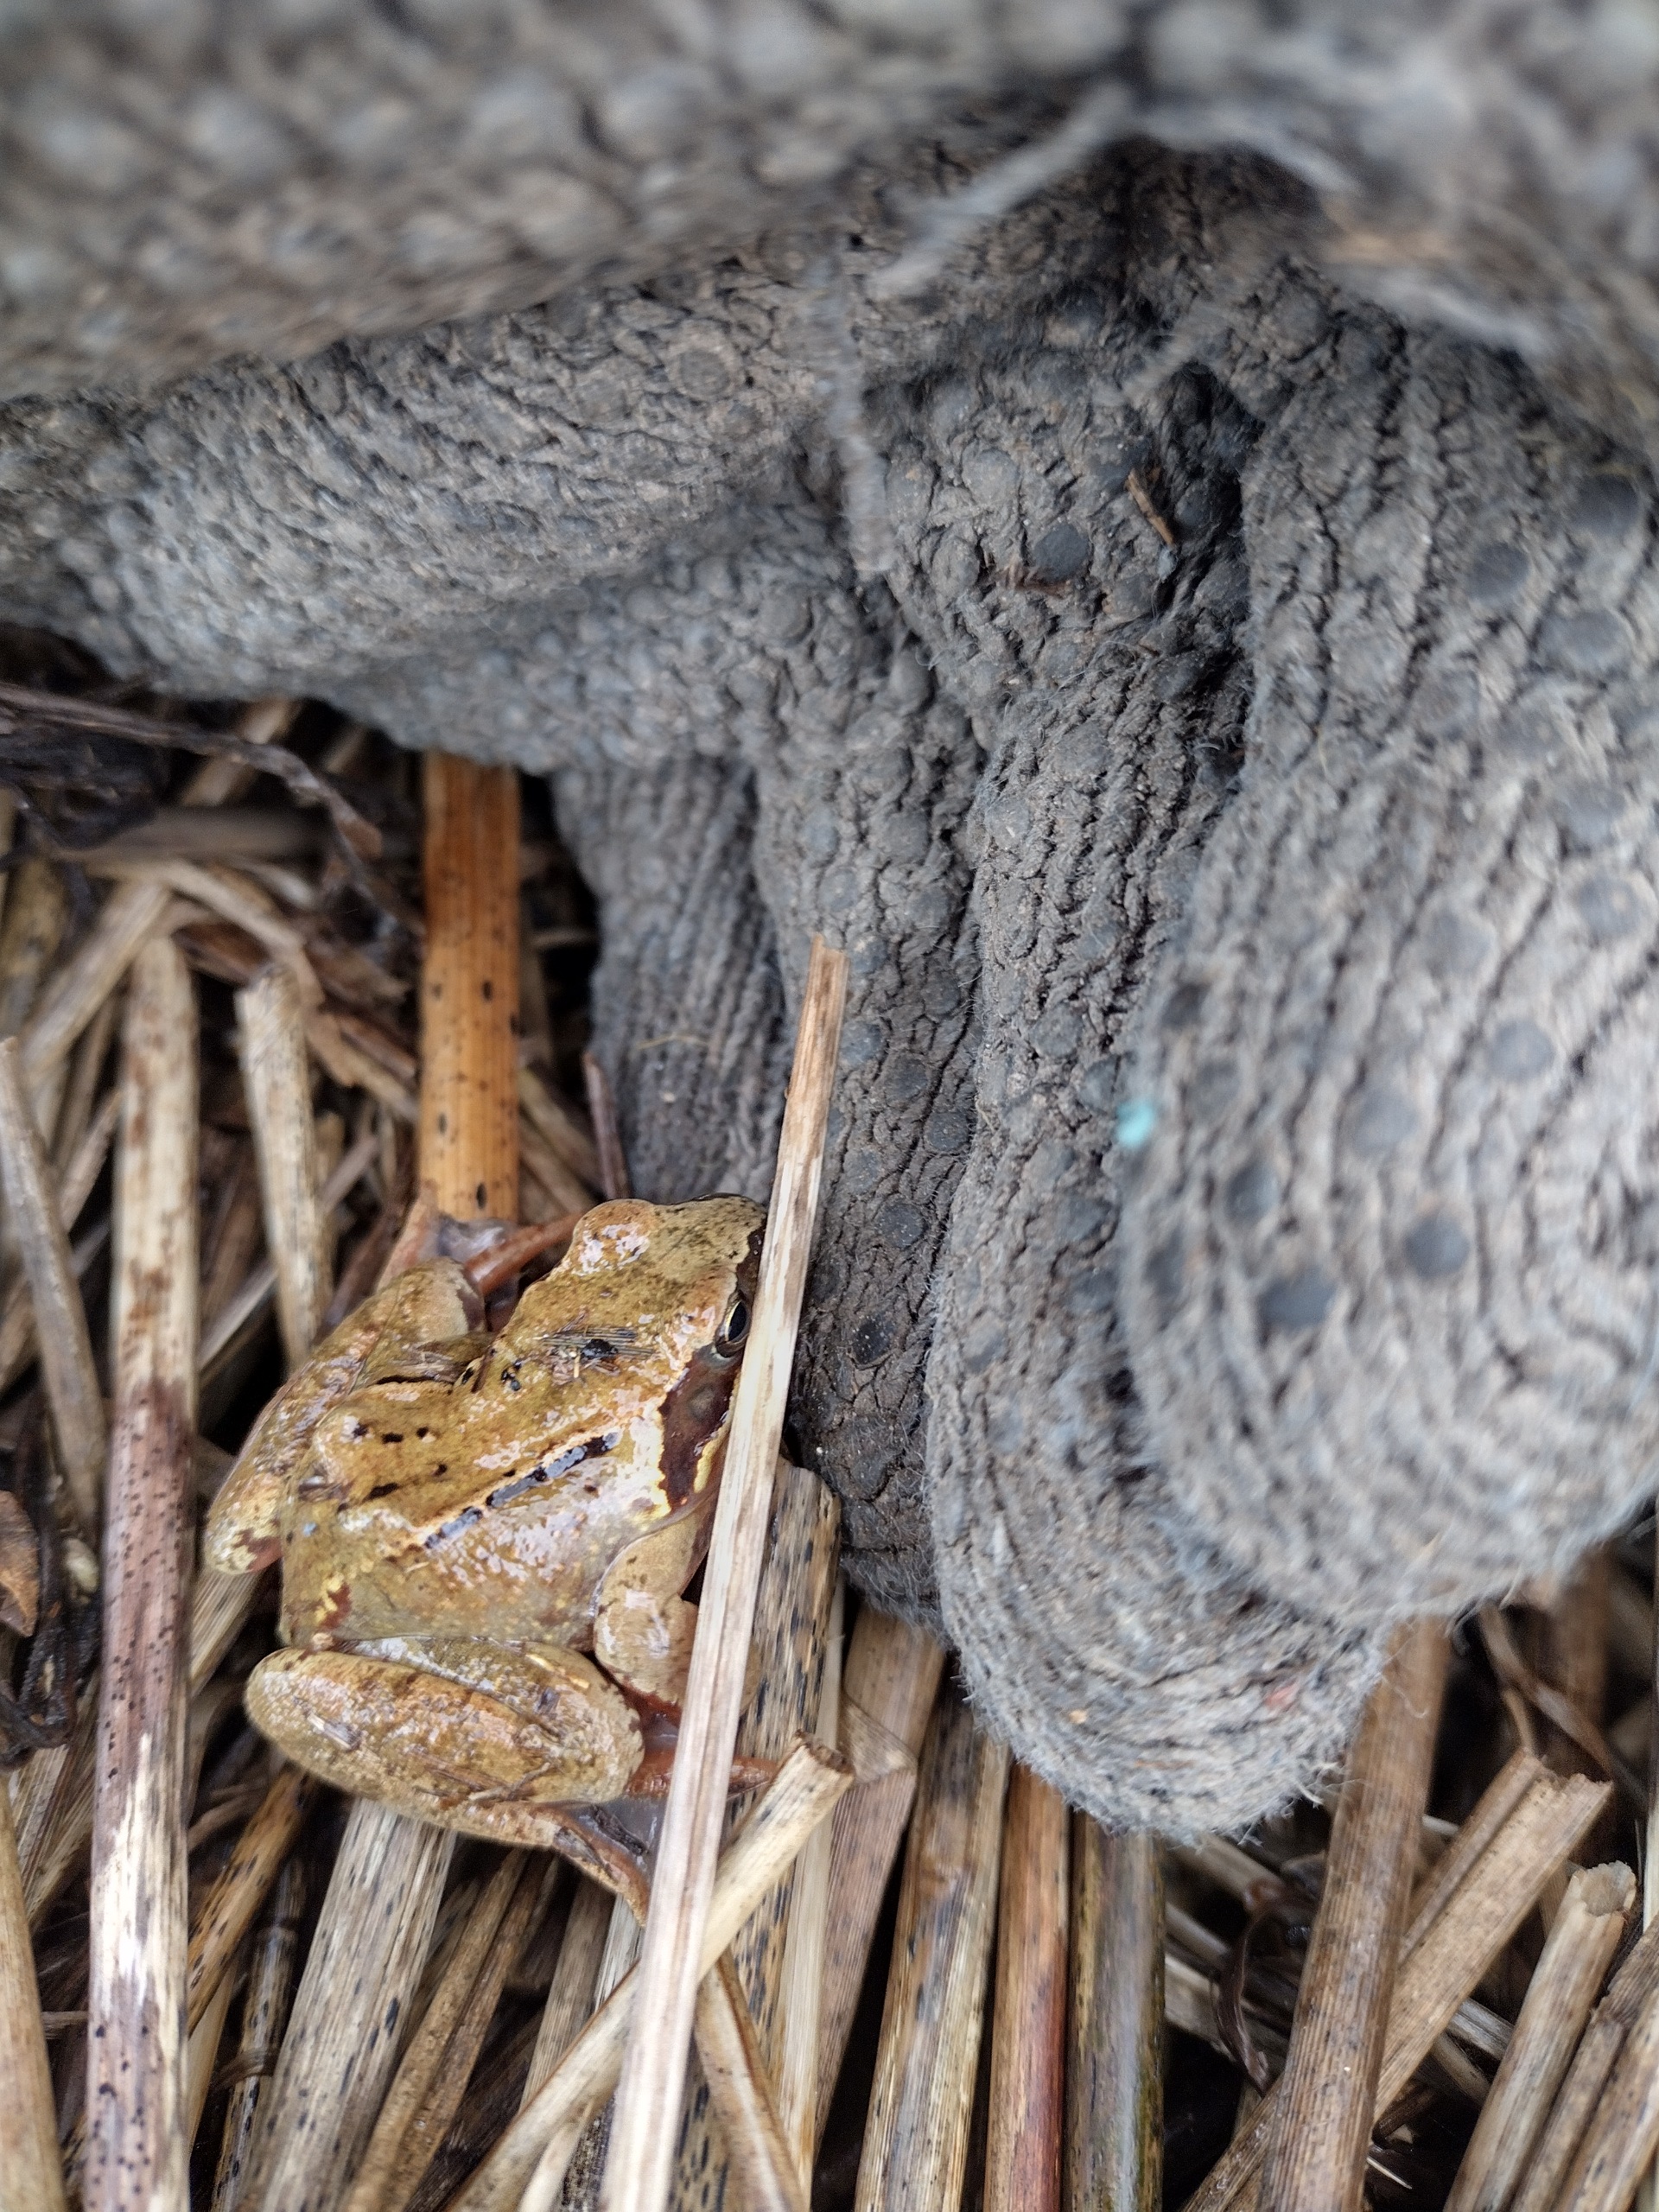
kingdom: Animalia
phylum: Chordata
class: Amphibia
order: Anura
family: Ranidae
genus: Rana
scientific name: Rana temporaria
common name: Butsnudet frø
